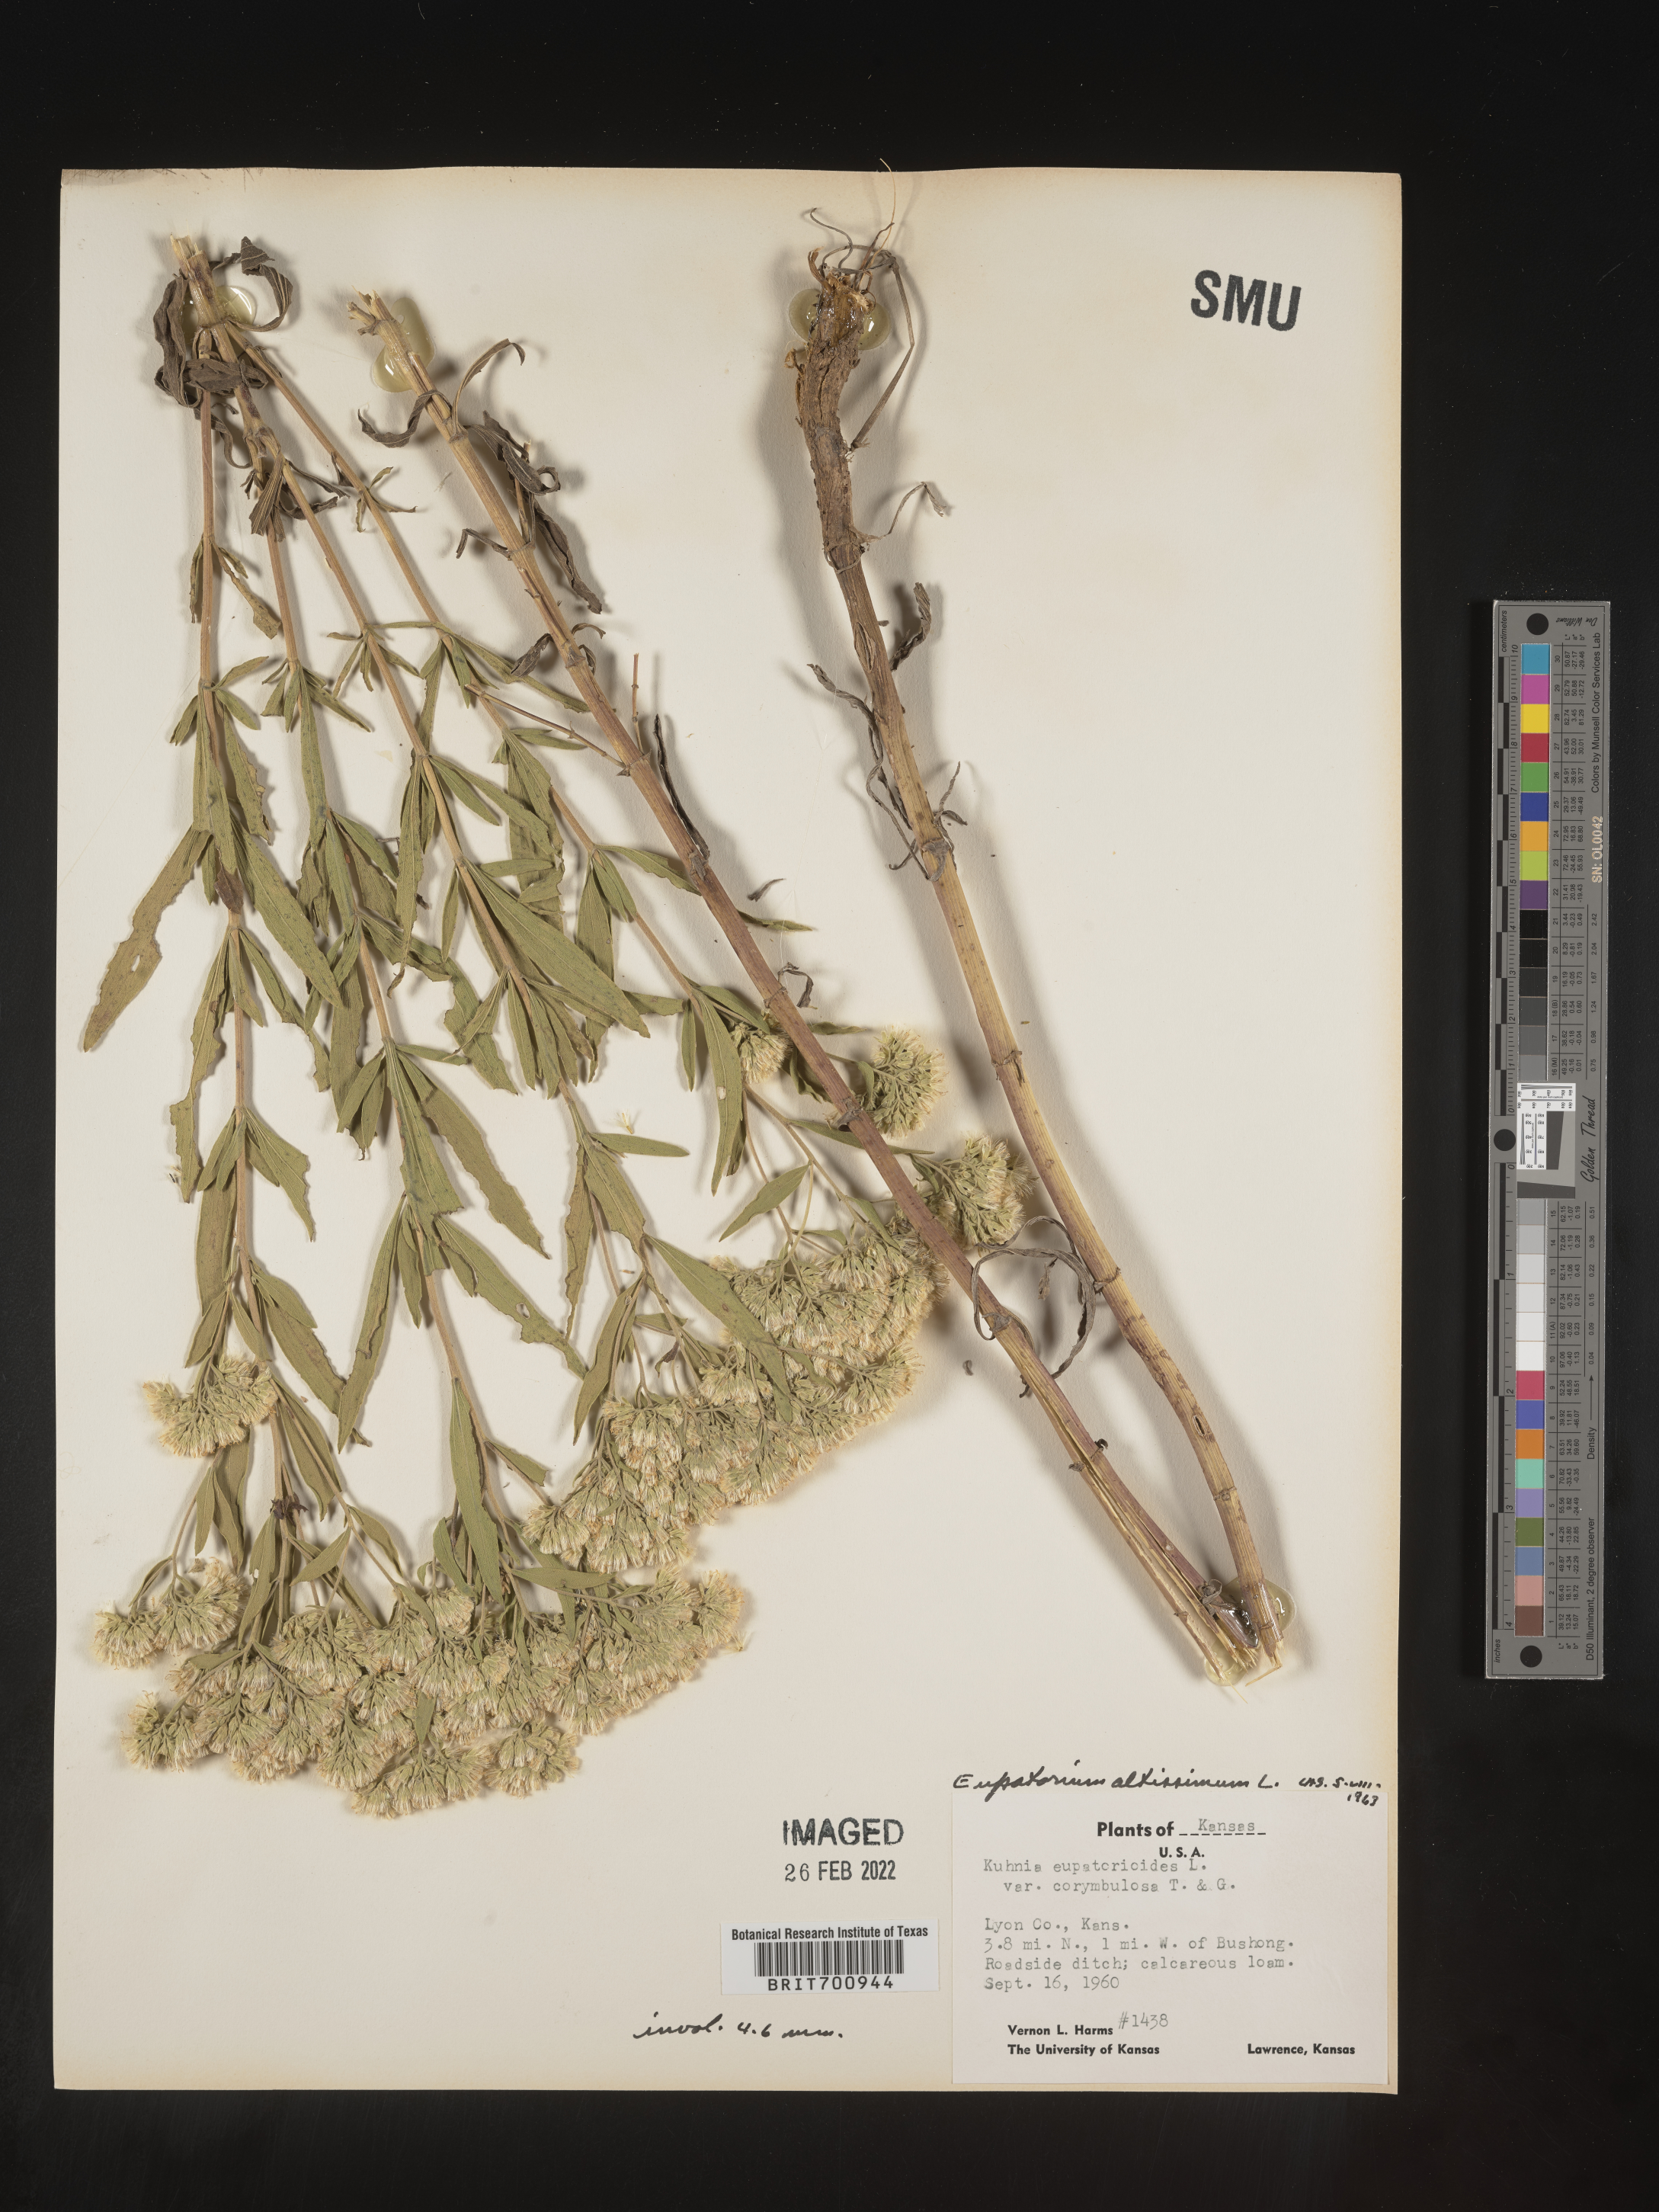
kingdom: Plantae
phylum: Tracheophyta
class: Magnoliopsida
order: Asterales
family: Asteraceae
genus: Eupatorium
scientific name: Eupatorium altissimum
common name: Tall thoroughwort
